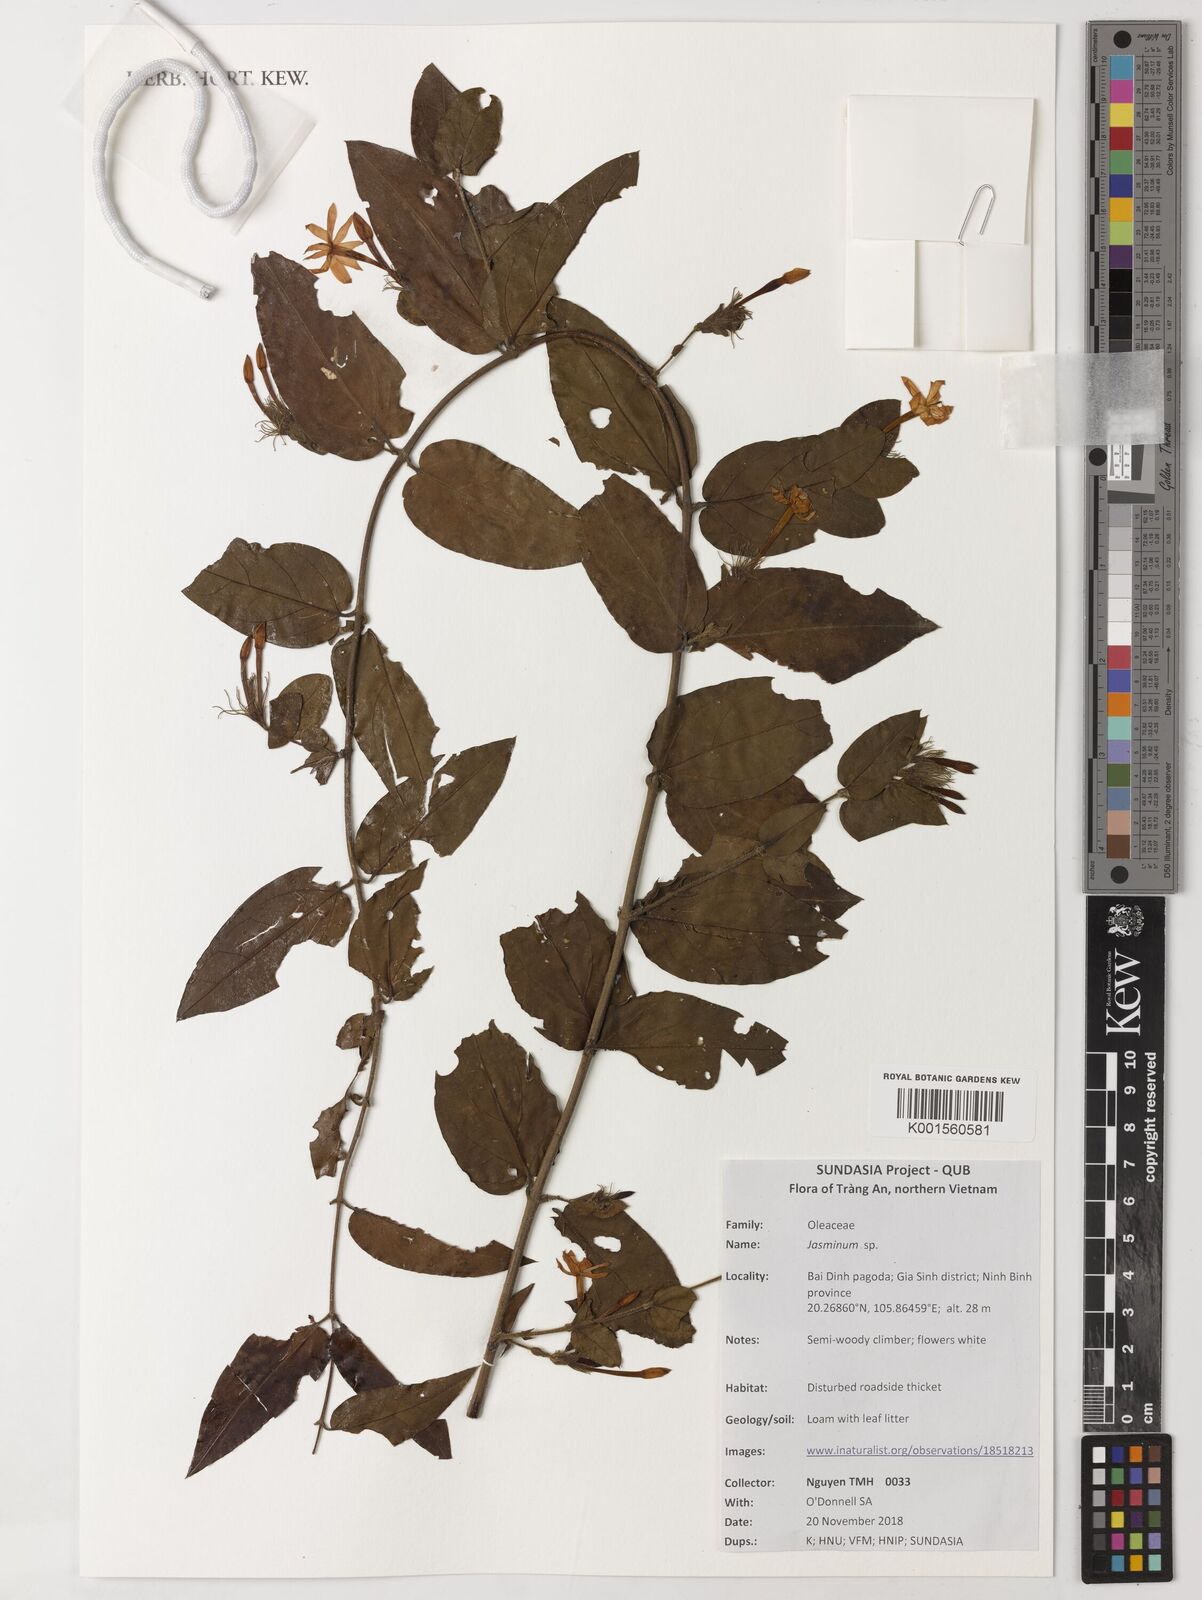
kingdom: Plantae
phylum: Tracheophyta
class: Magnoliopsida
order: Lamiales
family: Oleaceae
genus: Jasminum
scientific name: Jasminum
